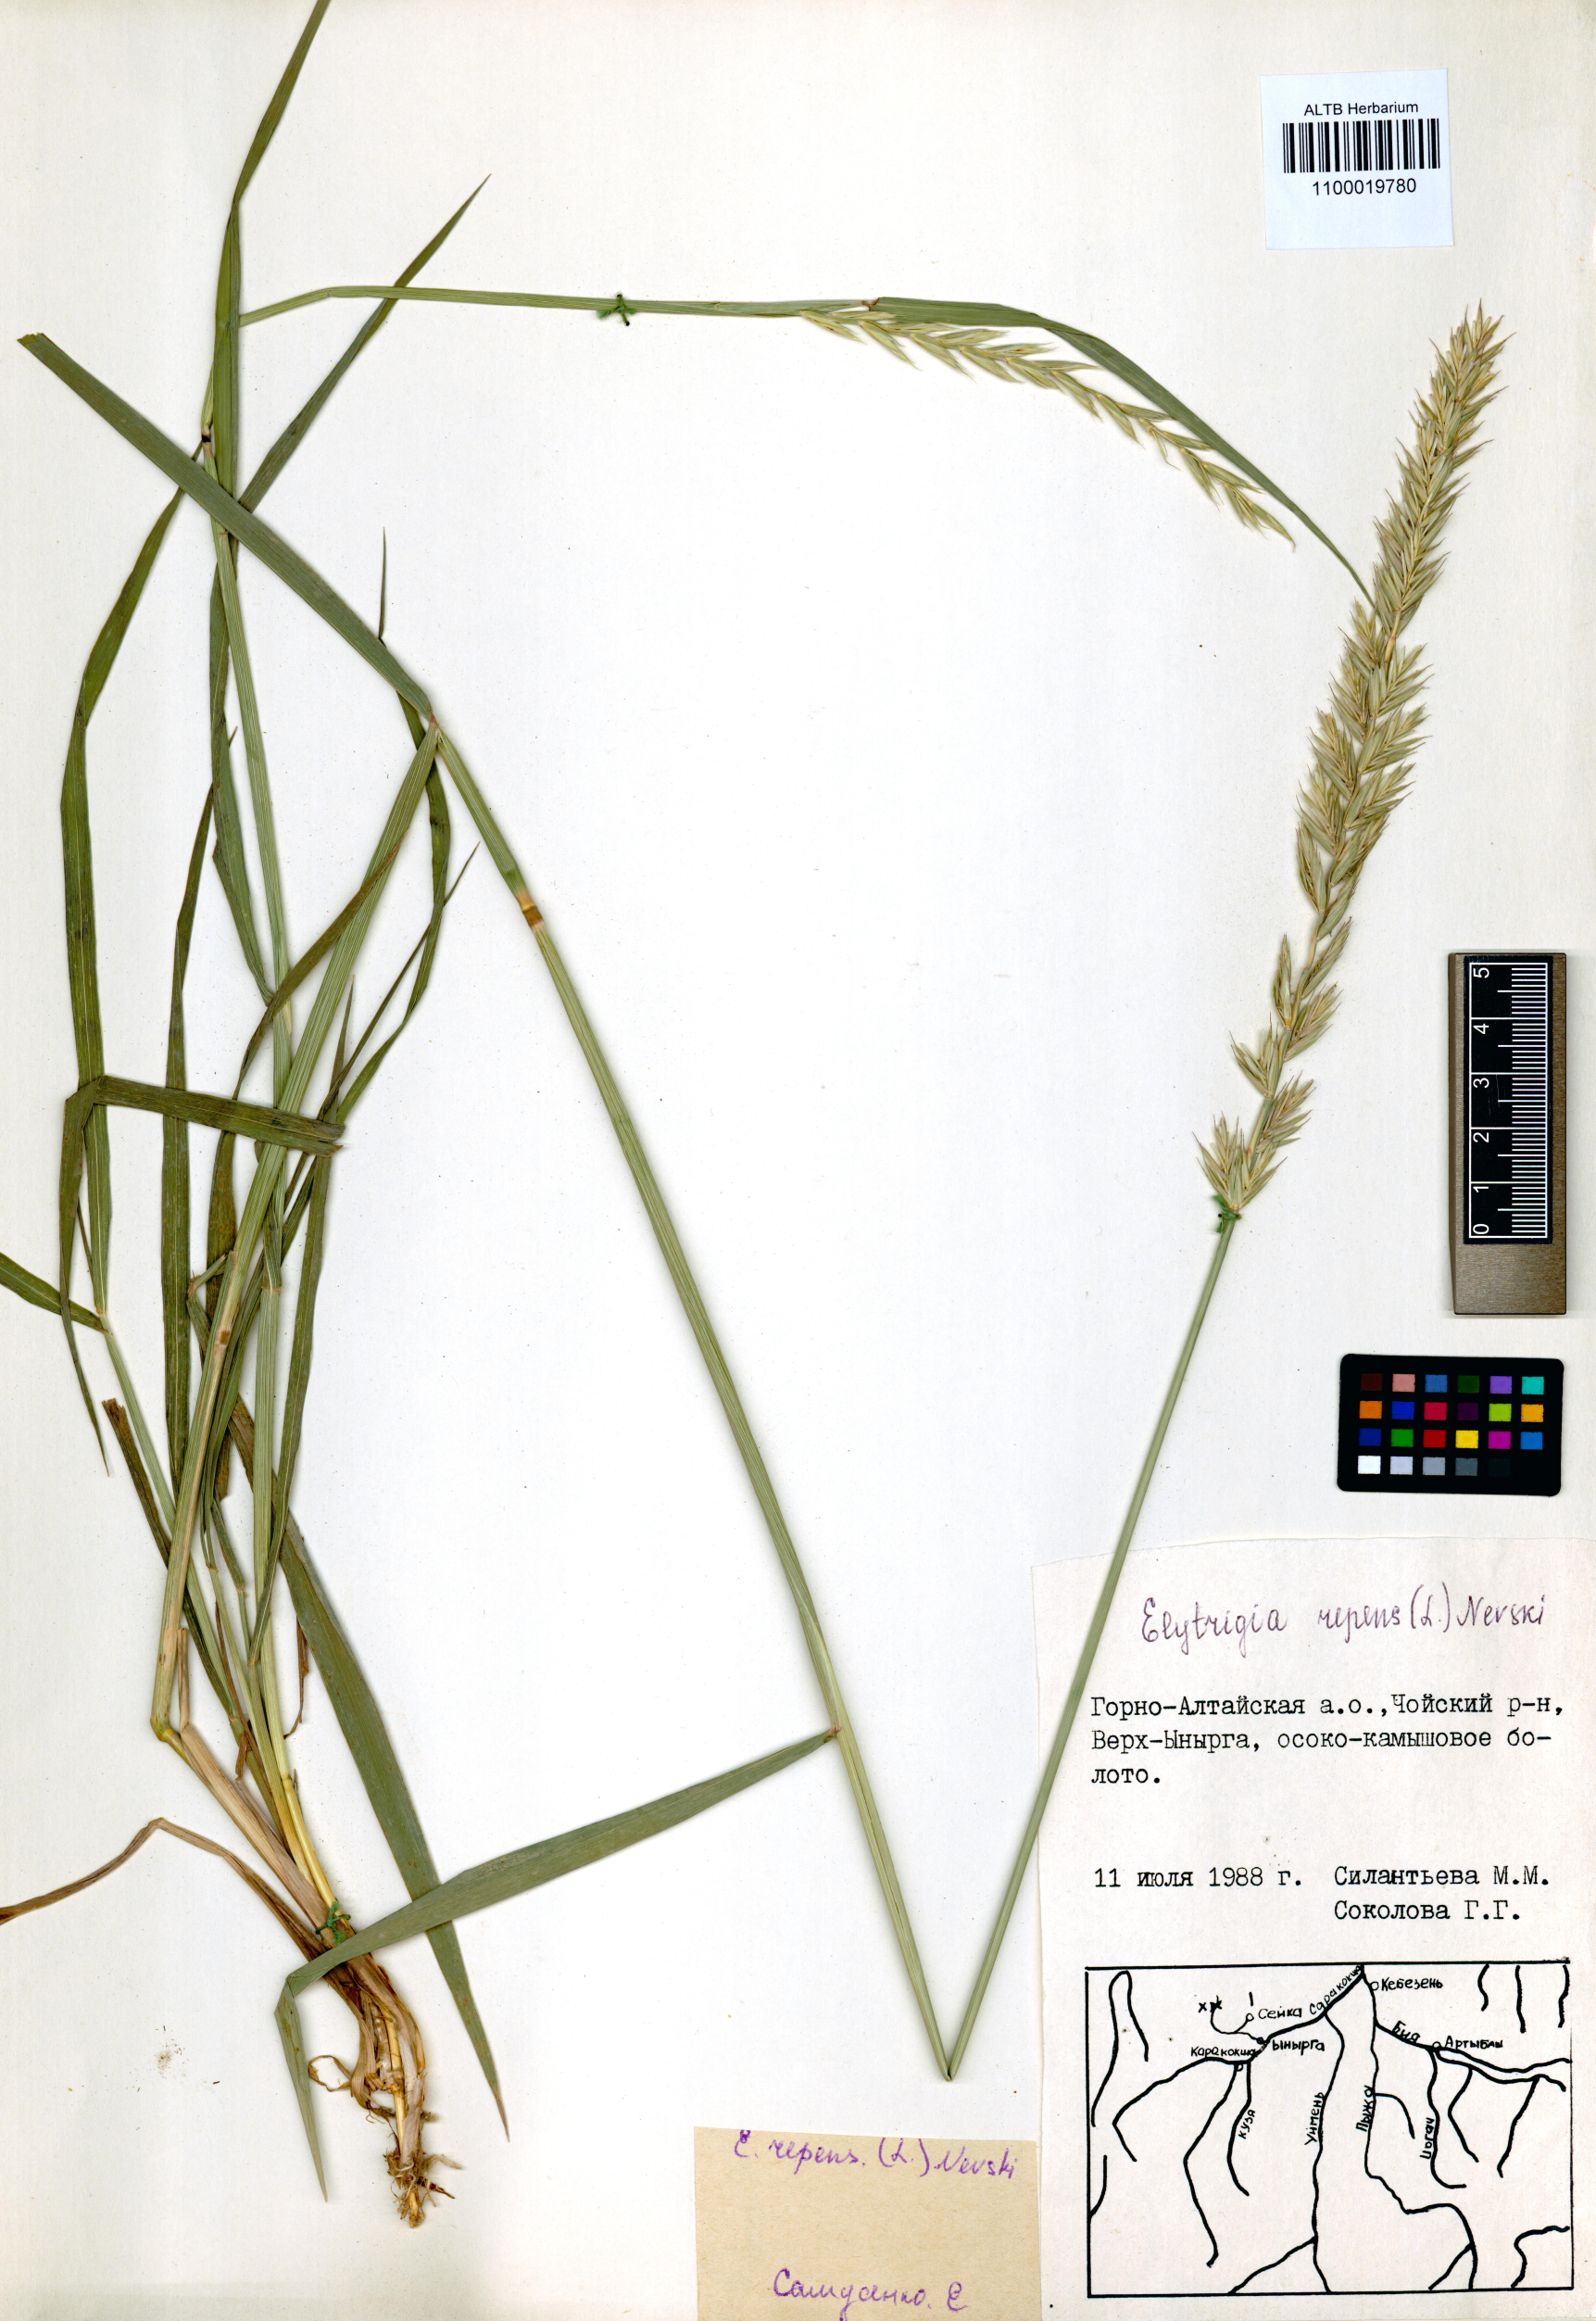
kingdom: Plantae
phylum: Tracheophyta
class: Liliopsida
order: Poales
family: Poaceae
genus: Elymus
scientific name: Elymus repens
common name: Quackgrass
